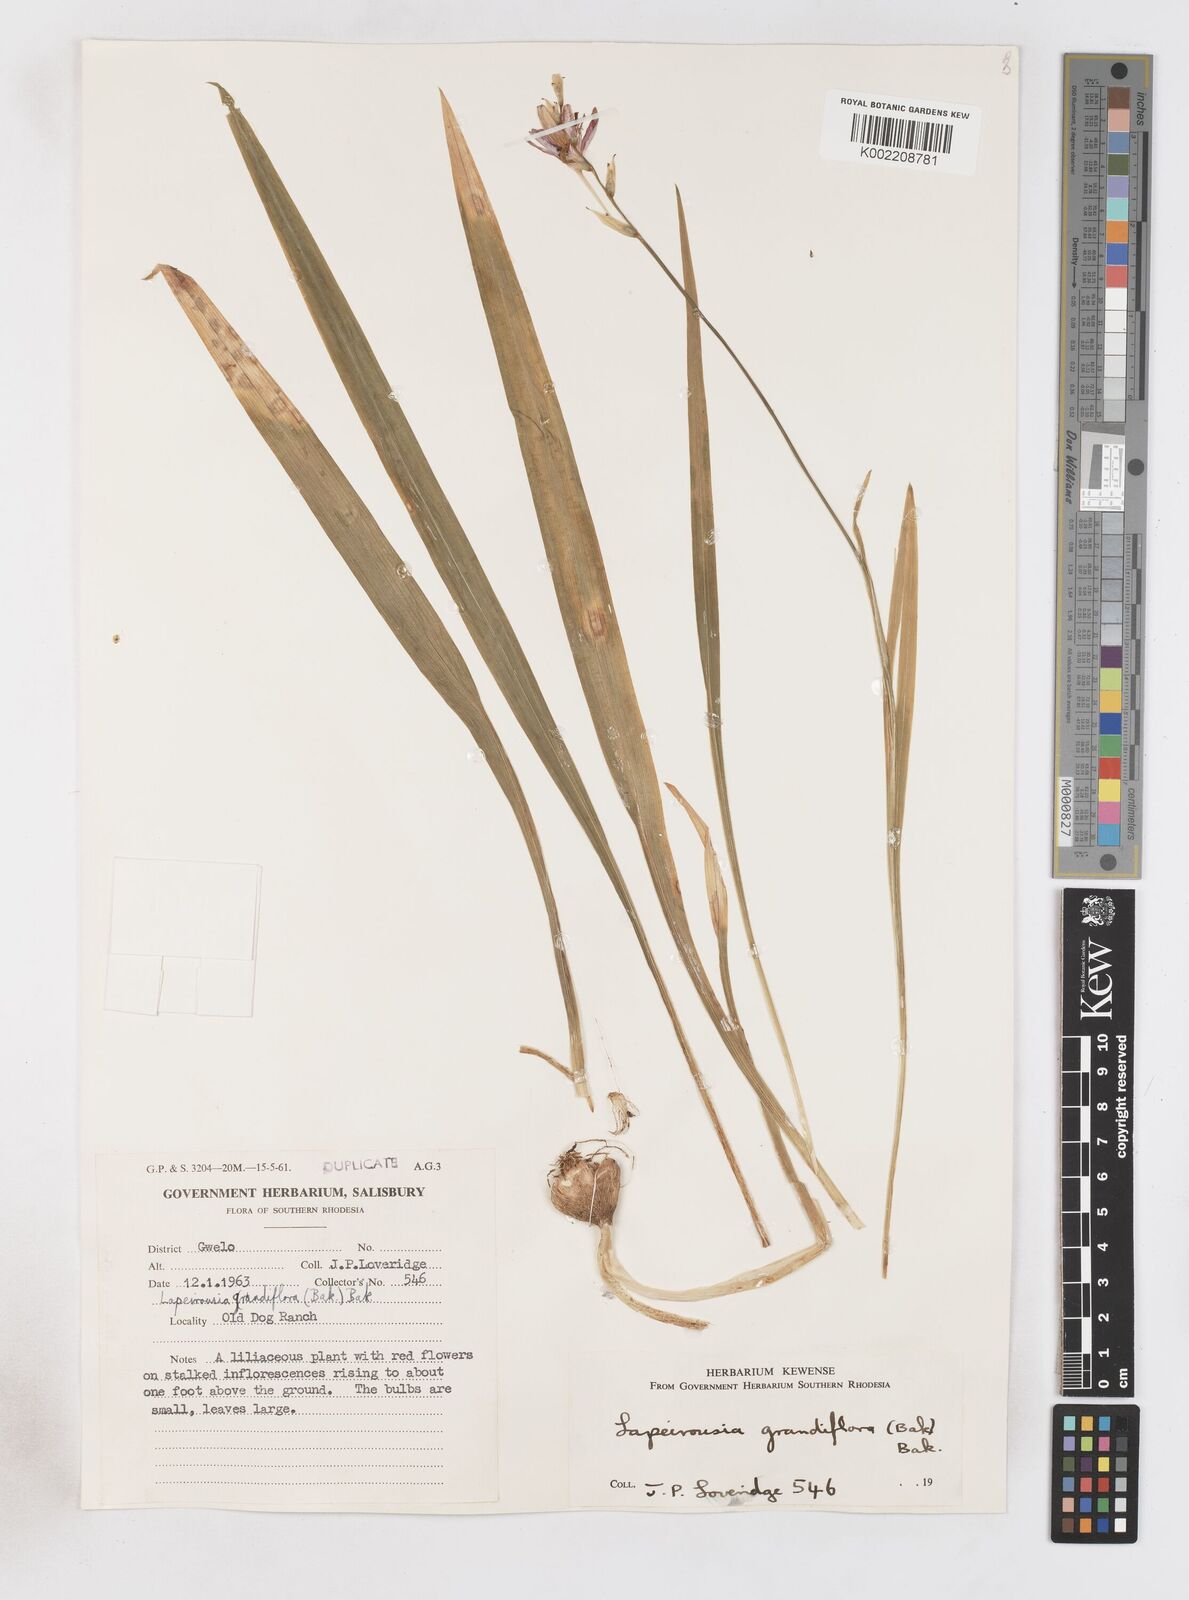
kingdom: Plantae
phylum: Tracheophyta
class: Liliopsida
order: Asparagales
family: Iridaceae
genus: Freesia
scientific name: Freesia grandiflora
